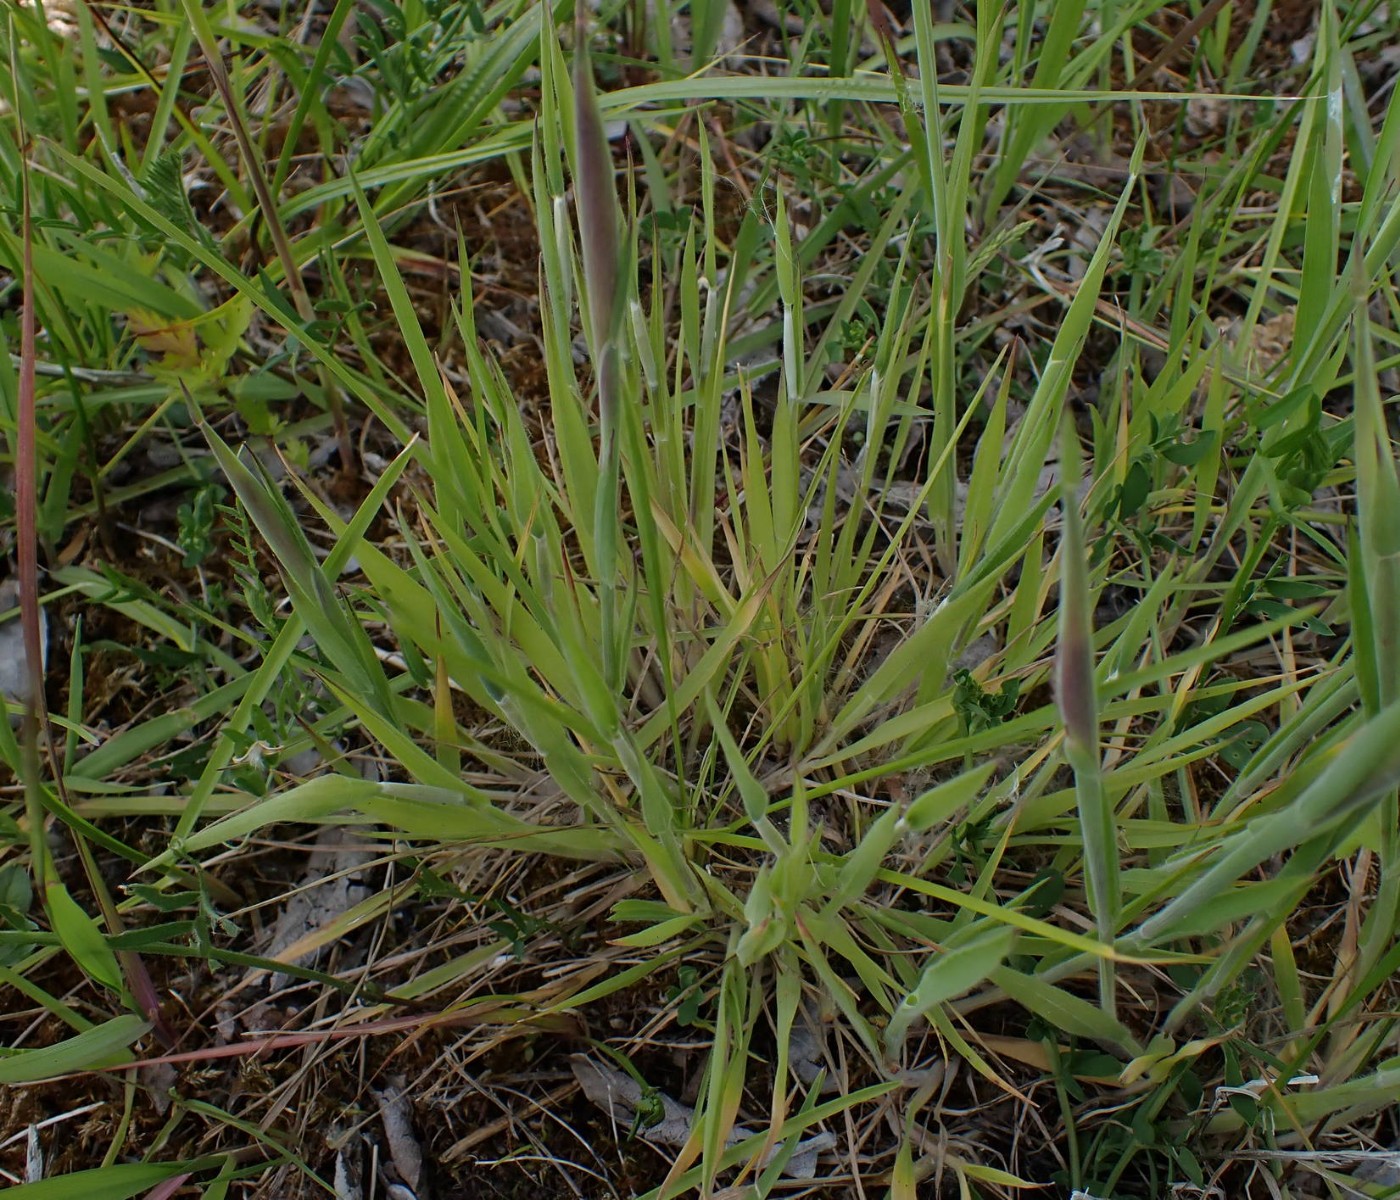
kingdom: Fungi
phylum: Ascomycota
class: Sordariomycetes
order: Hypocreales
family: Clavicipitaceae
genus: Epichloe
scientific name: Epichloe clarkii
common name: fløjlsgræs-kernerør
